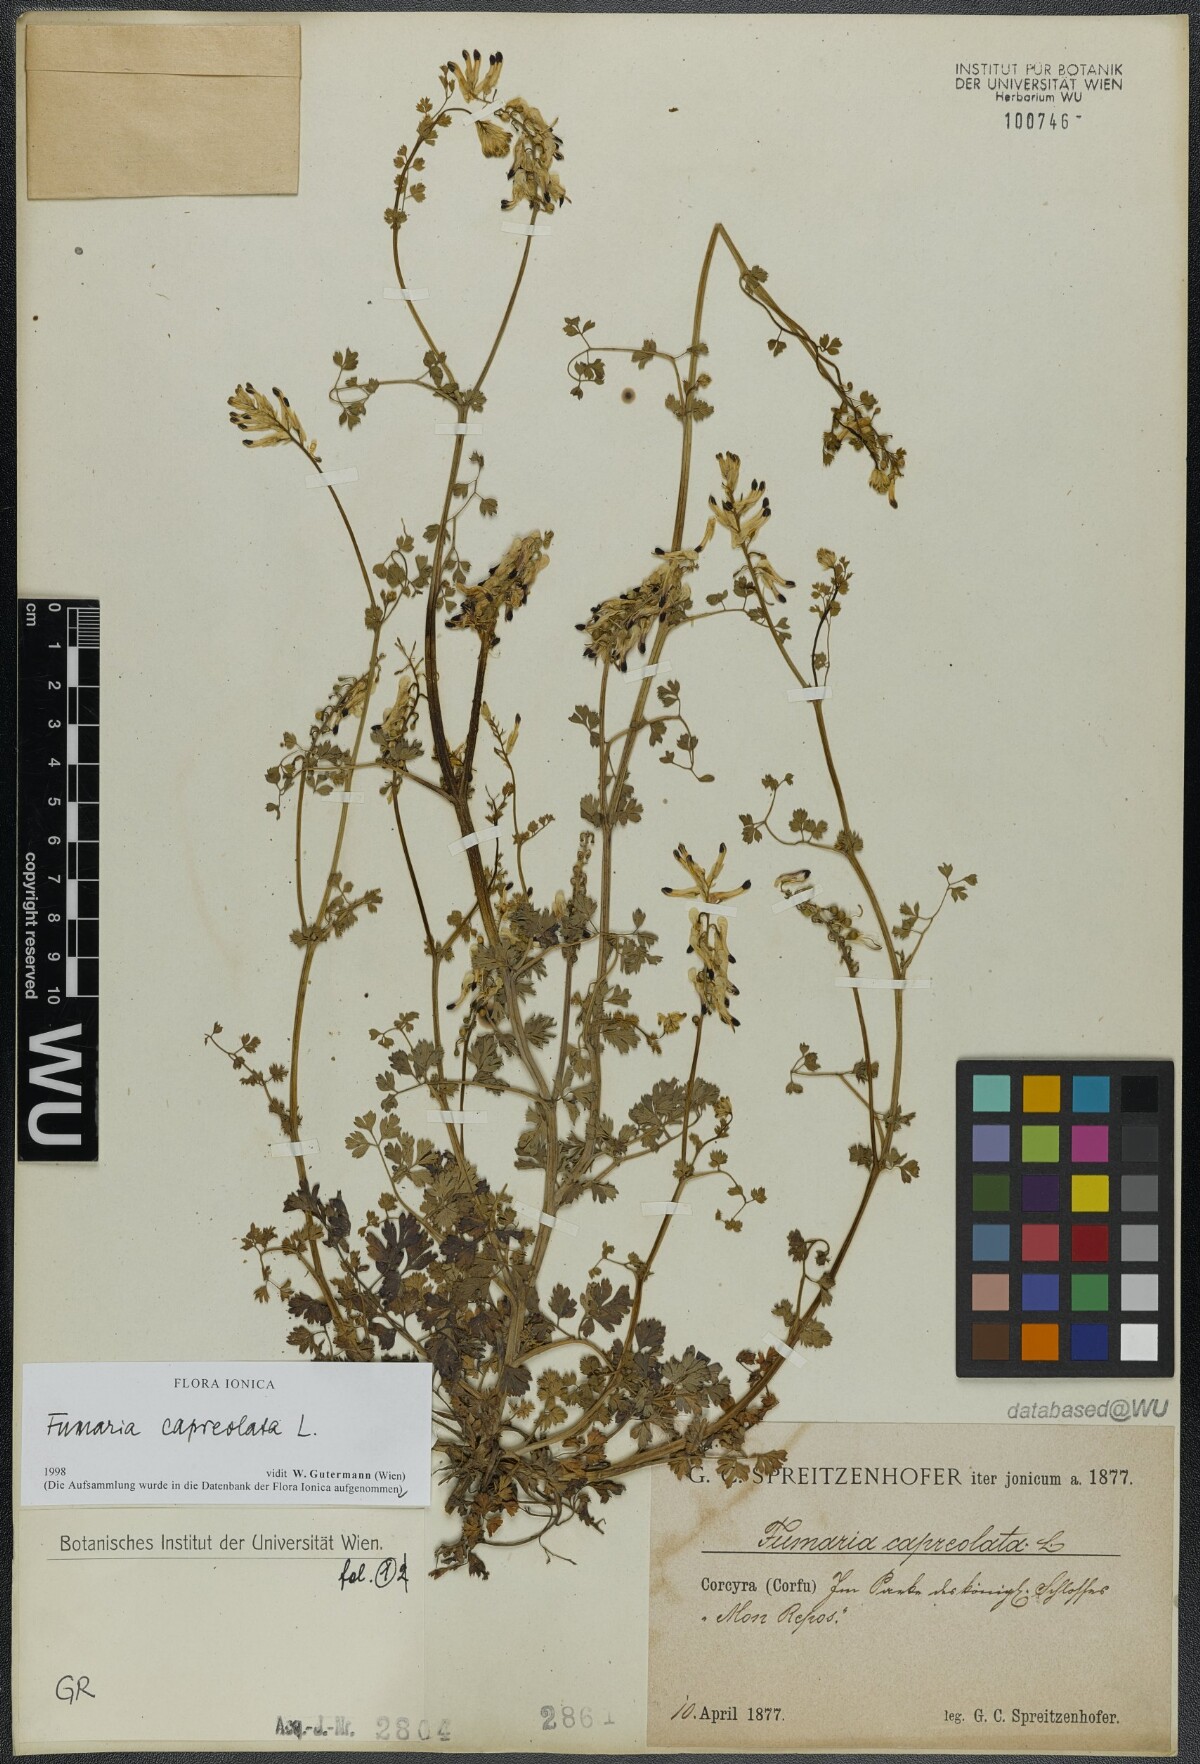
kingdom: Plantae
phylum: Tracheophyta
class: Magnoliopsida
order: Ranunculales
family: Papaveraceae
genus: Fumaria
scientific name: Fumaria capreolata
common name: White ramping-fumitory
